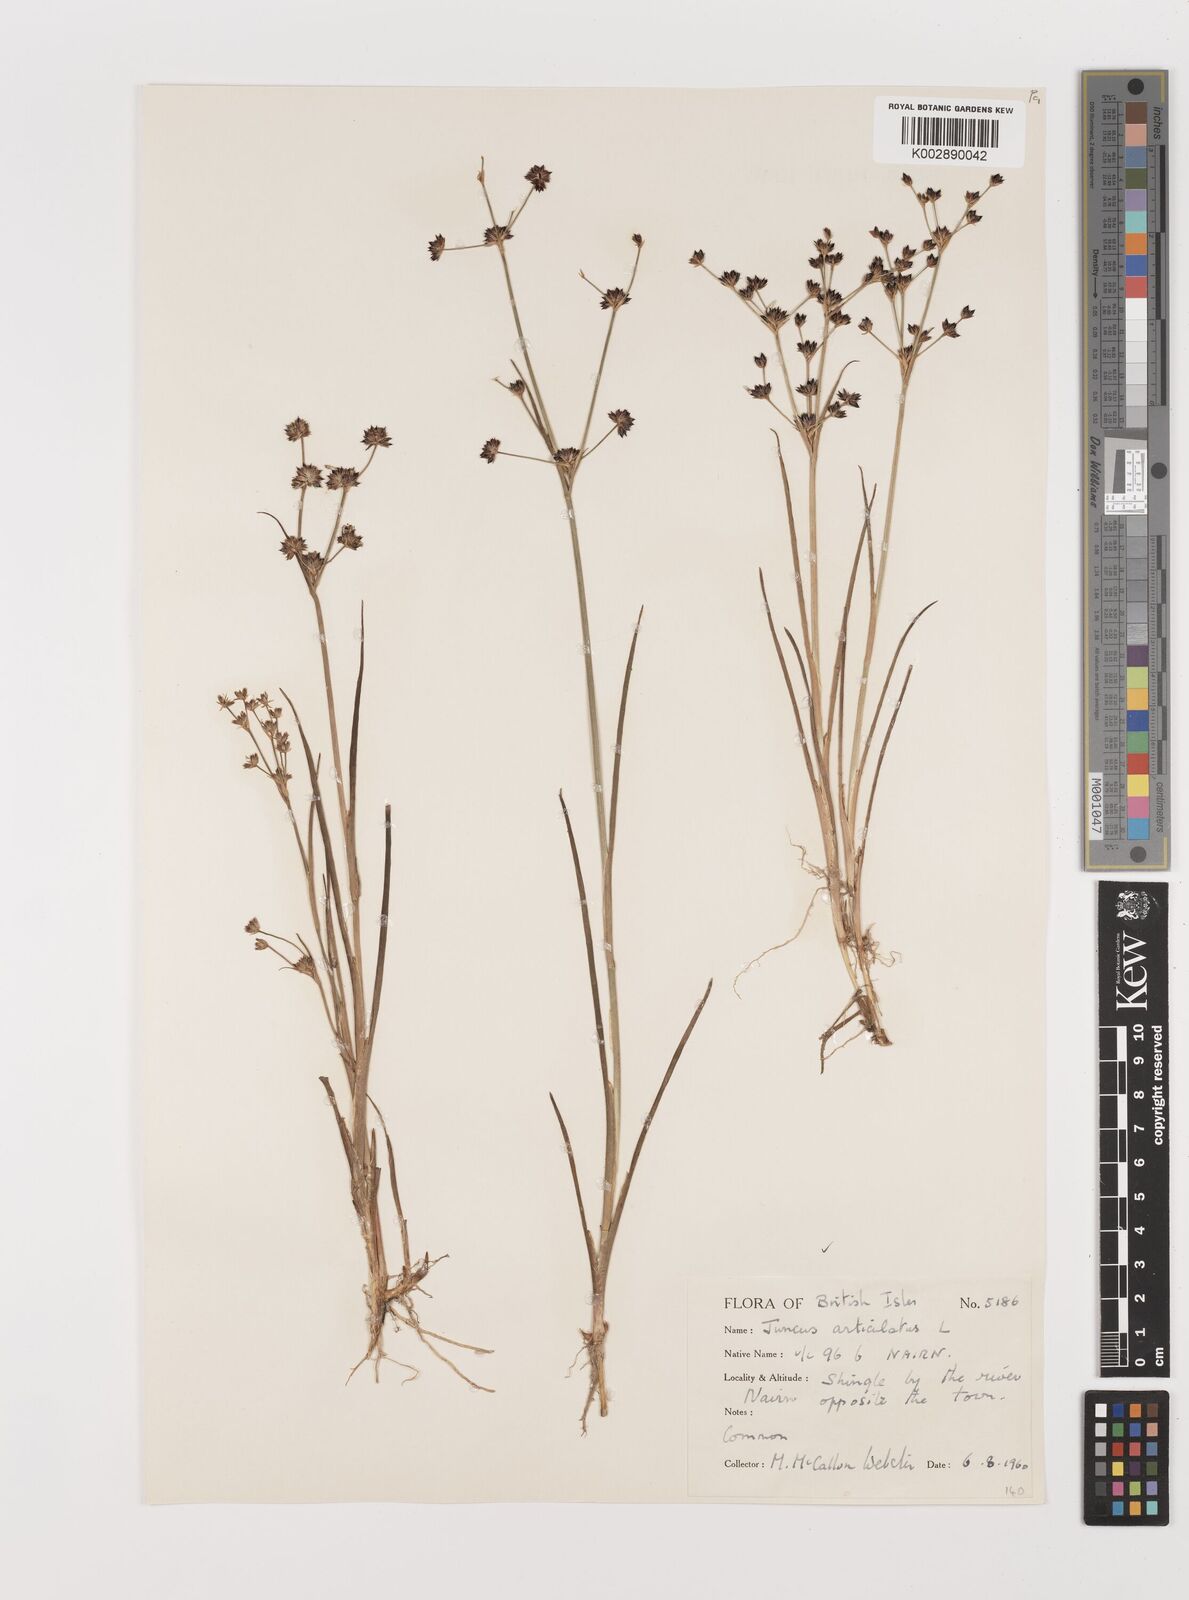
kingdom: Plantae
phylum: Tracheophyta
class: Liliopsida
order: Poales
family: Juncaceae
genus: Juncus
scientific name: Juncus articulatus
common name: Jointed rush
